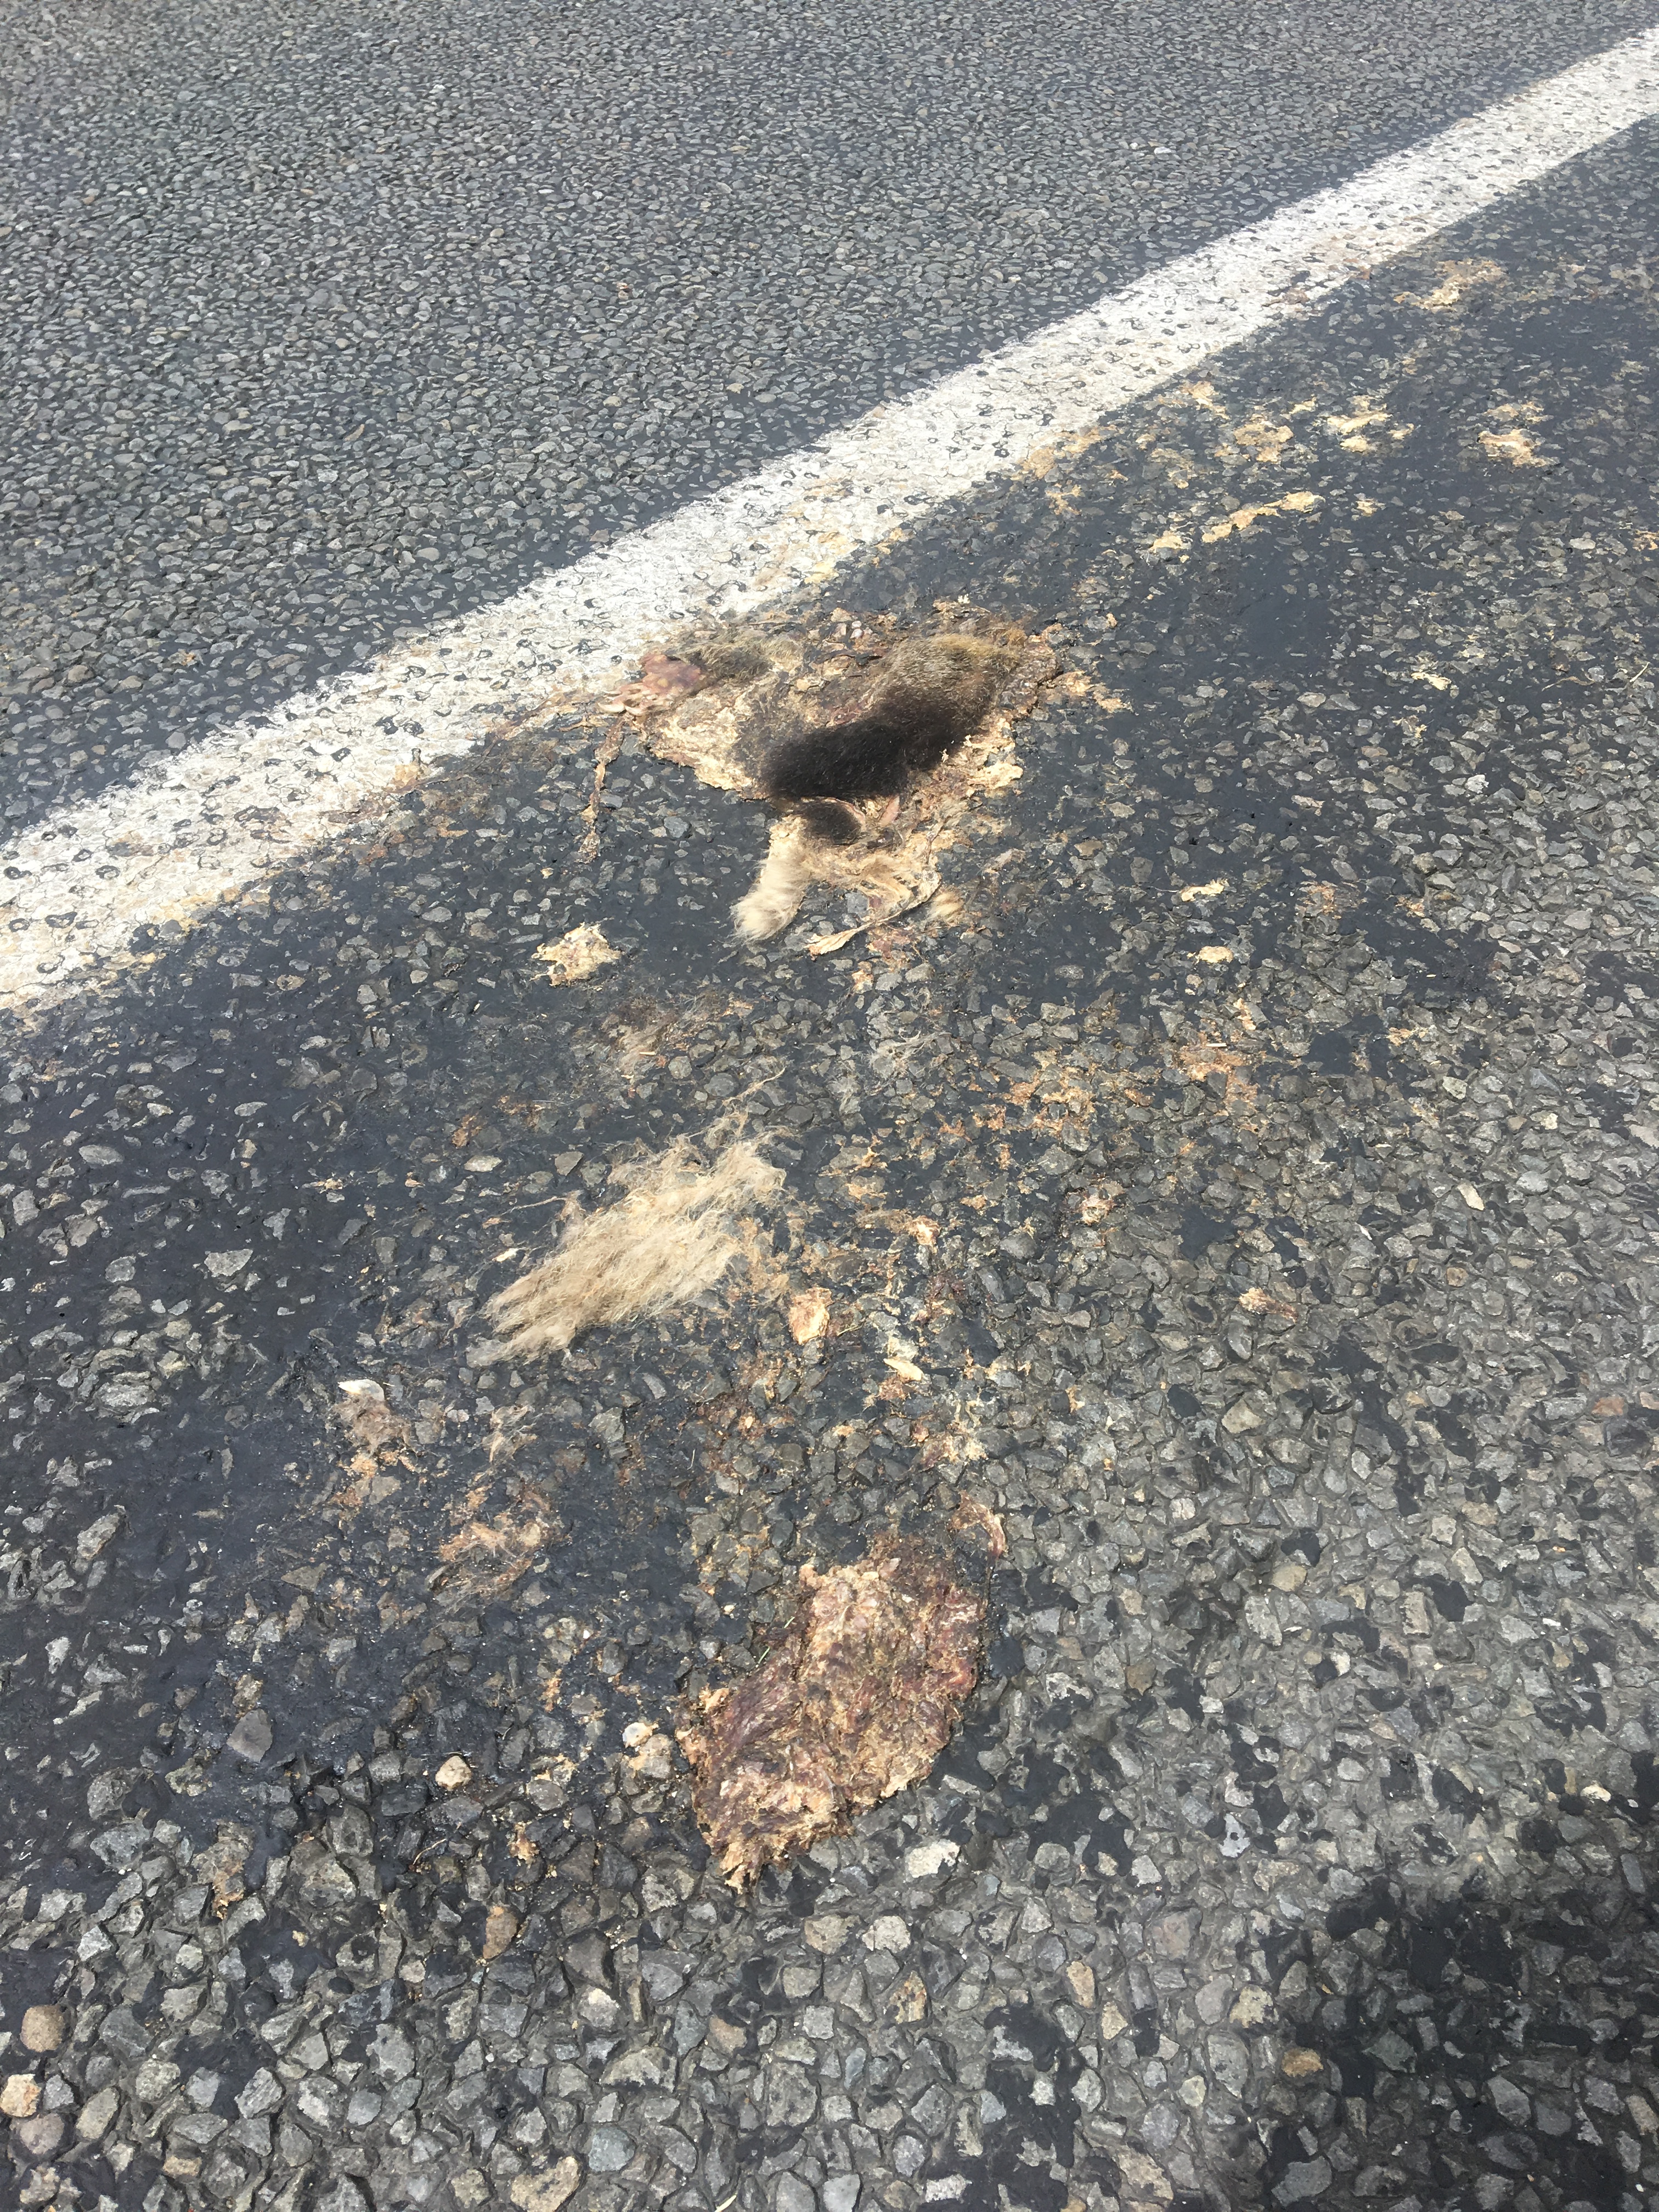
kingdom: Animalia
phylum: Chordata
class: Mammalia
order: Erinaceomorpha
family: Erinaceidae
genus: Erinaceus
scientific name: Erinaceus
